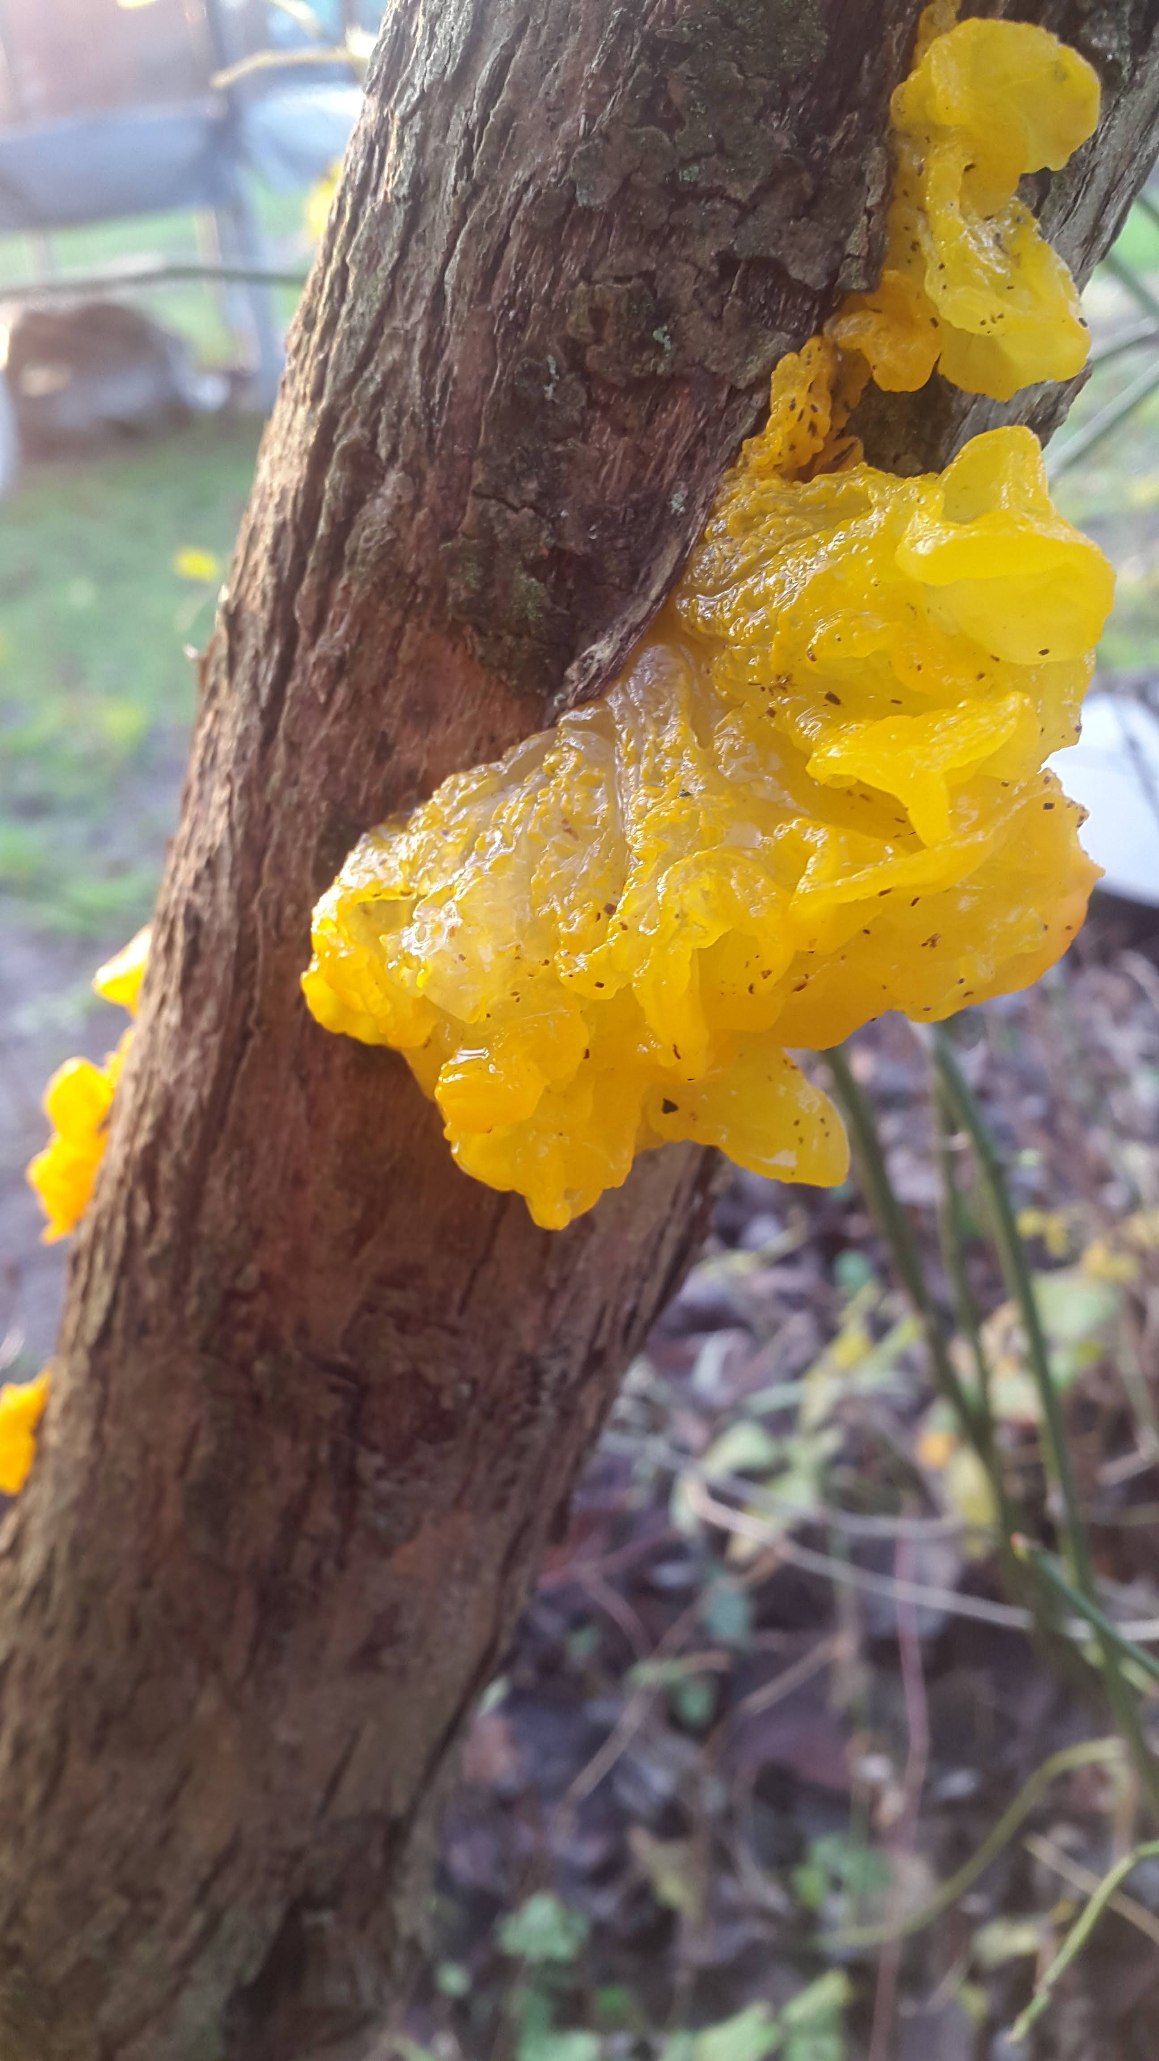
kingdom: Fungi
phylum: Basidiomycota
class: Tremellomycetes
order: Tremellales
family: Tremellaceae
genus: Tremella
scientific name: Tremella mesenterica
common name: Gul bævresvamp
